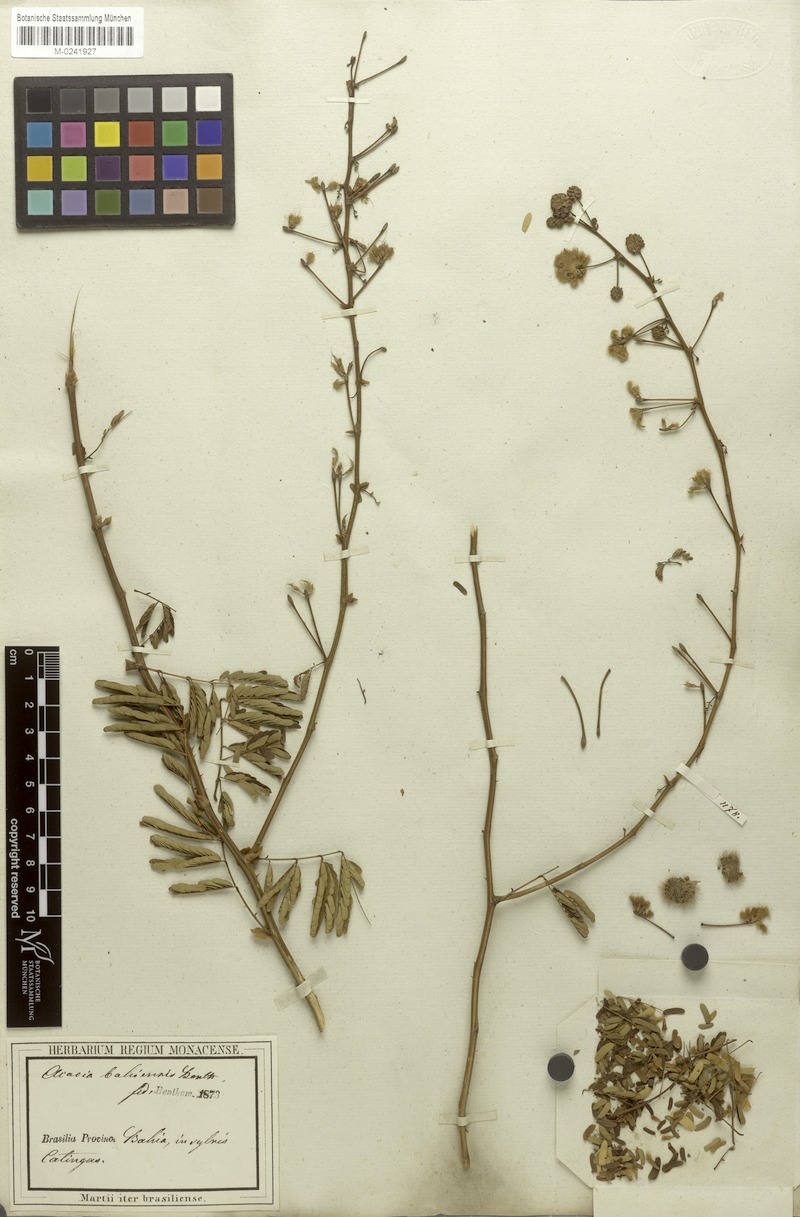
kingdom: Plantae
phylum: Tracheophyta
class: Magnoliopsida
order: Fabales
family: Fabaceae
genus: Senegalia
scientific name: Senegalia bahiensis
